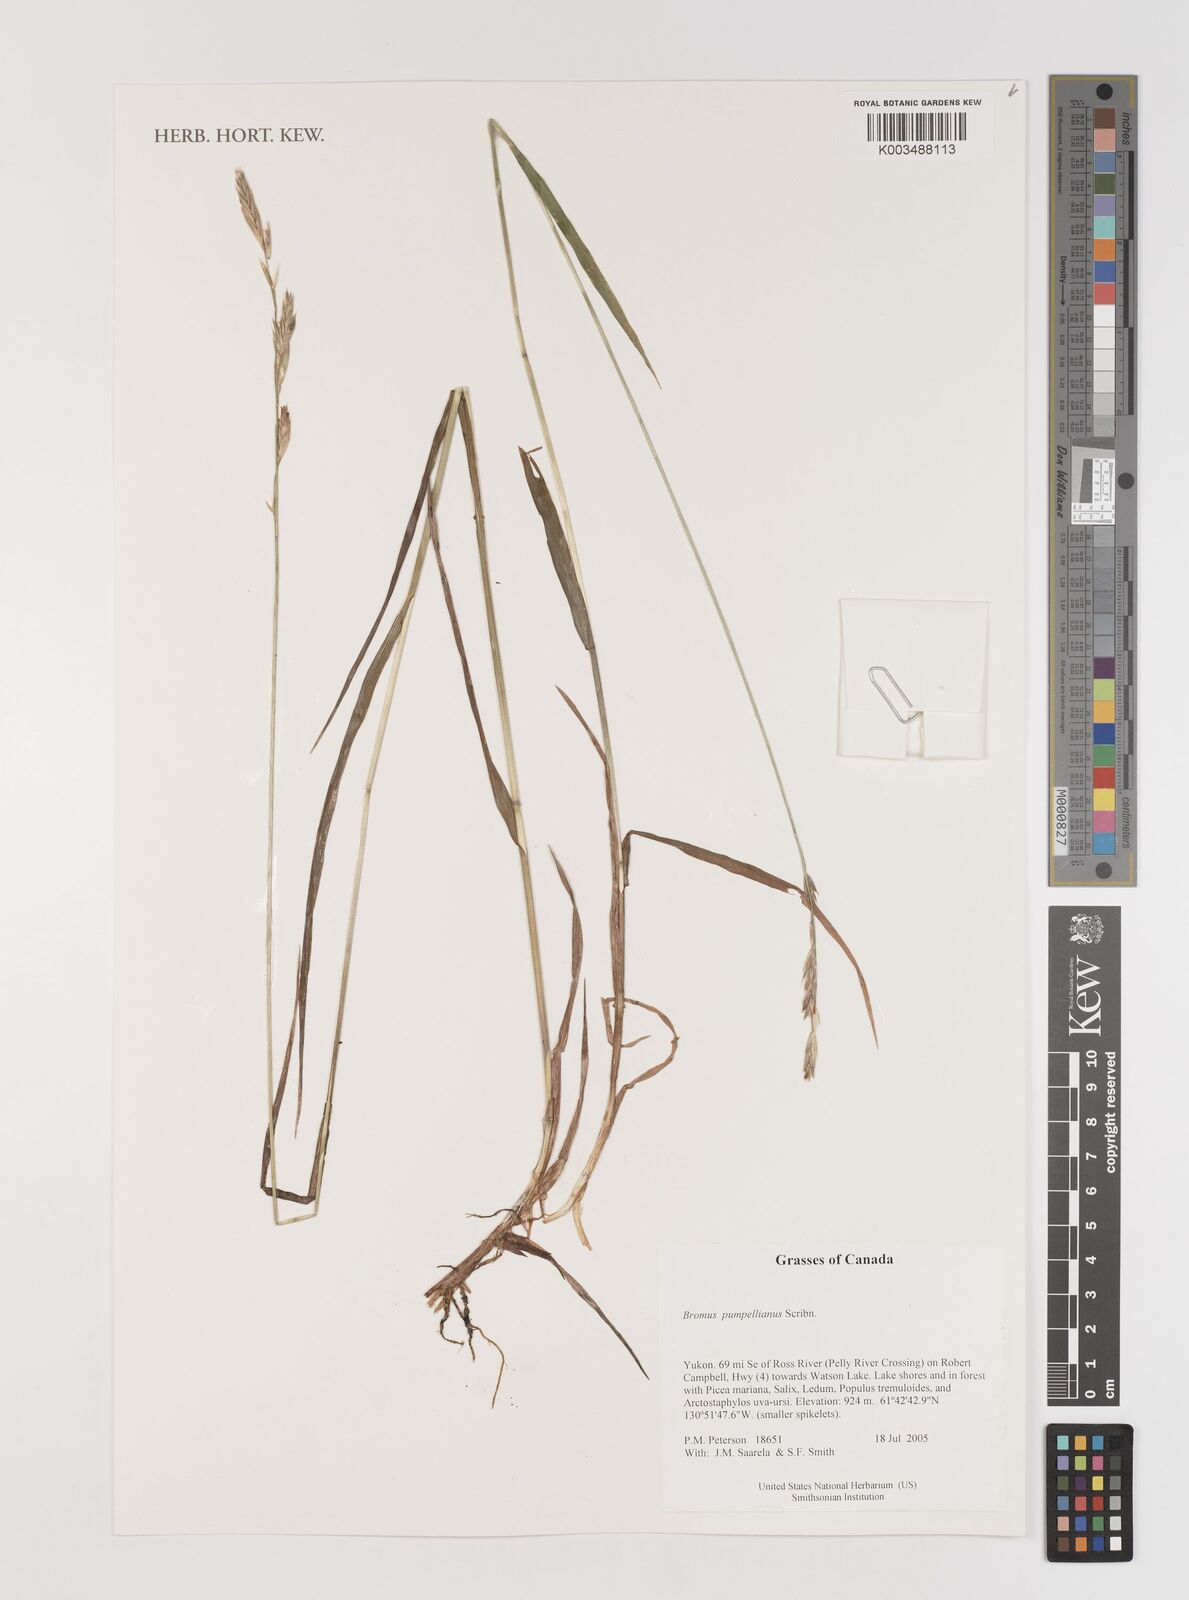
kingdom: Plantae
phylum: Tracheophyta
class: Liliopsida
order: Poales
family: Poaceae
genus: Bromus
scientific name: Bromus pumpellianus
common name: Pumpelly's brome
